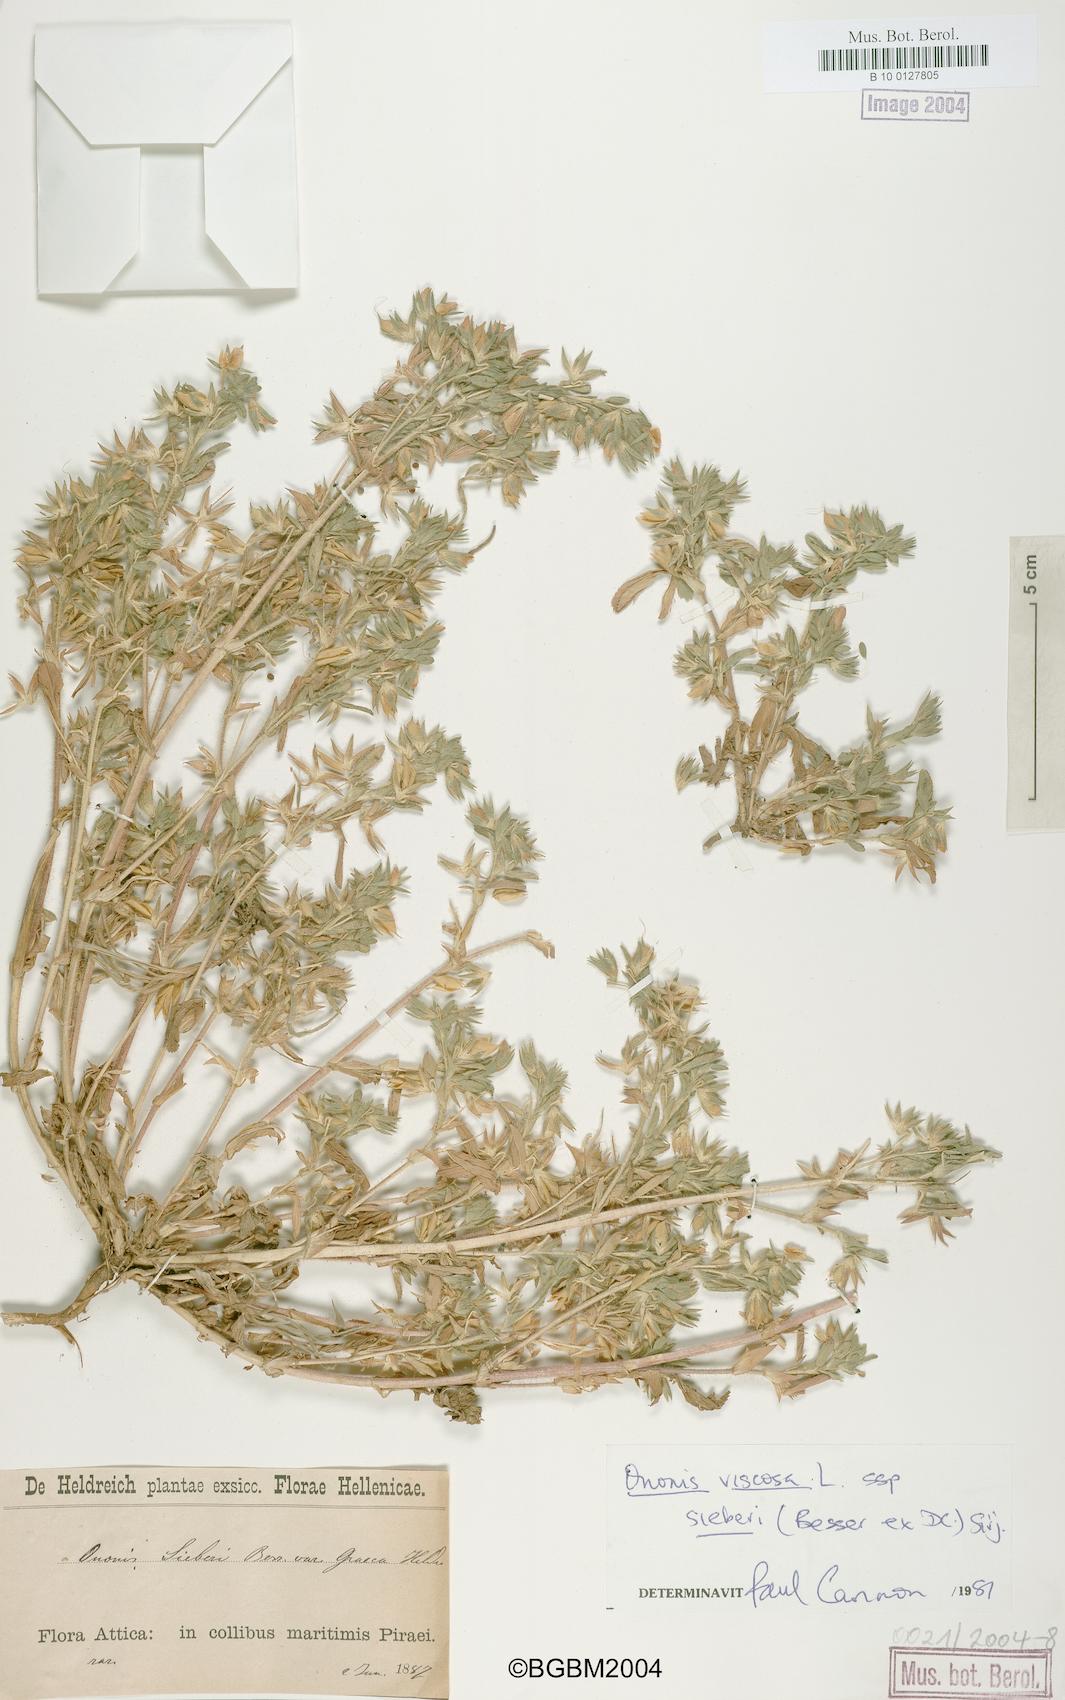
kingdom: Plantae
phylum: Tracheophyta
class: Magnoliopsida
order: Fabales
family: Fabaceae
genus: Ononis
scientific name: Ononis viscosa
